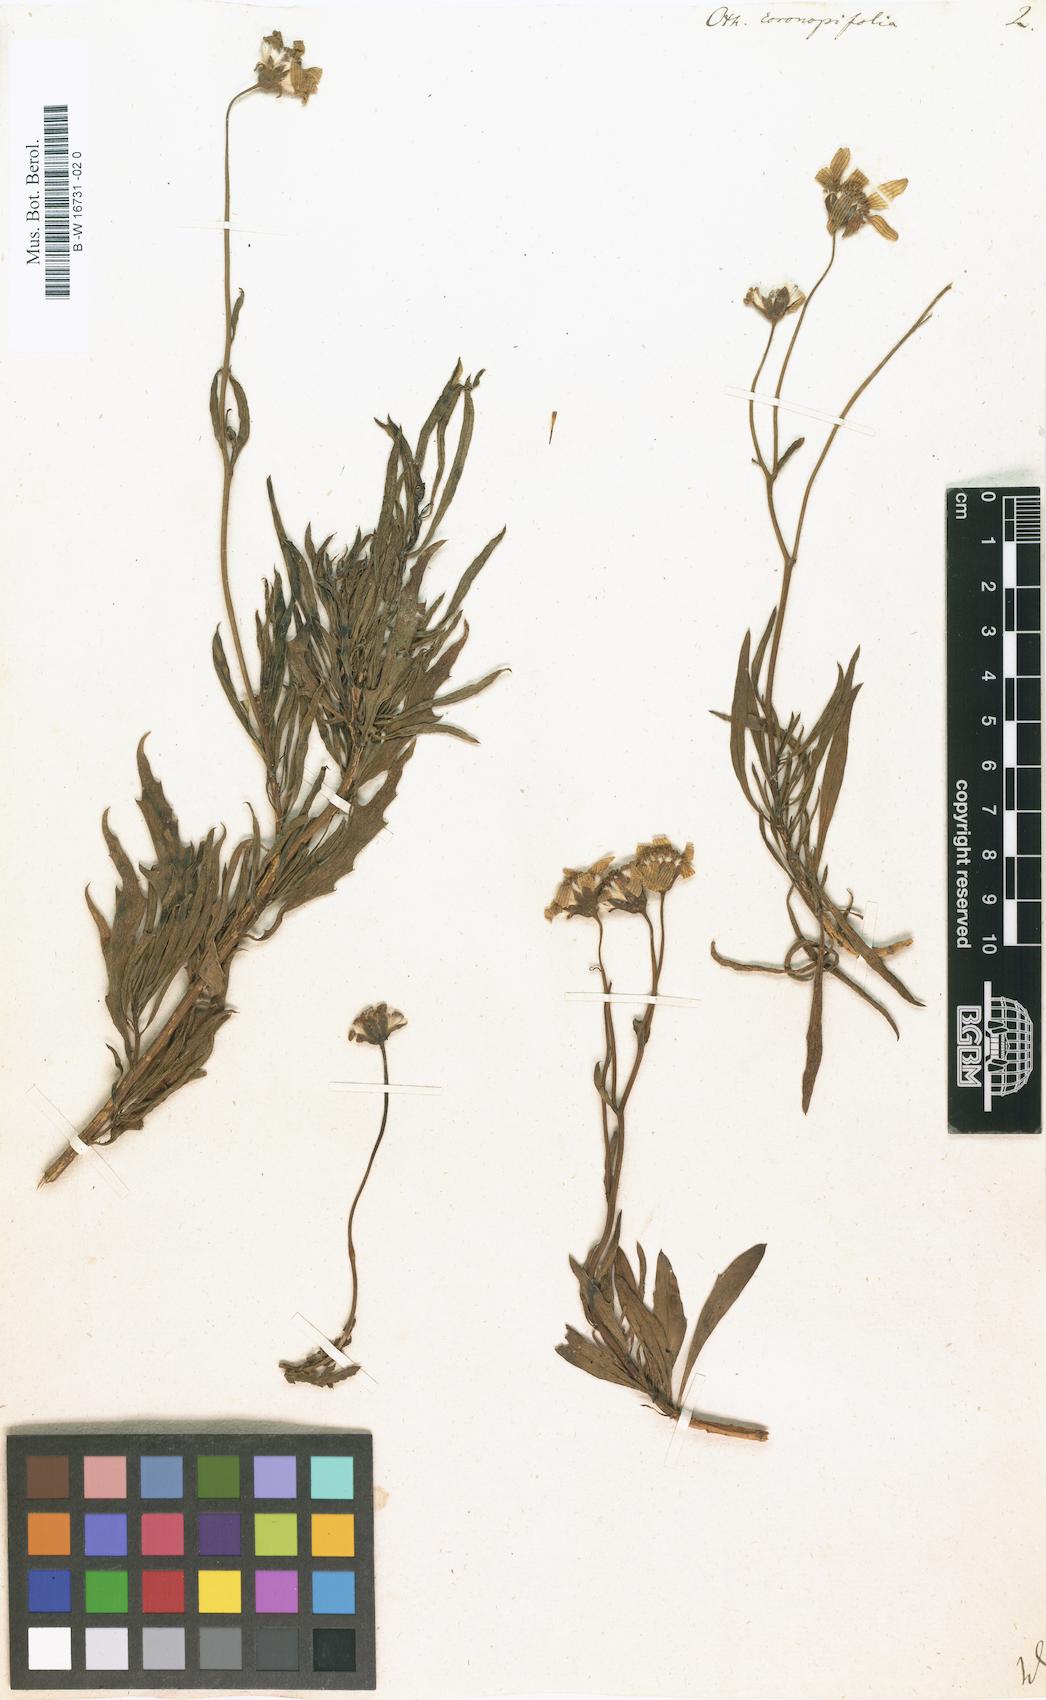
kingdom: Plantae
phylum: Tracheophyta
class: Magnoliopsida
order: Asterales
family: Asteraceae
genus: Othonna
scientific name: Othonna coronopifolia
